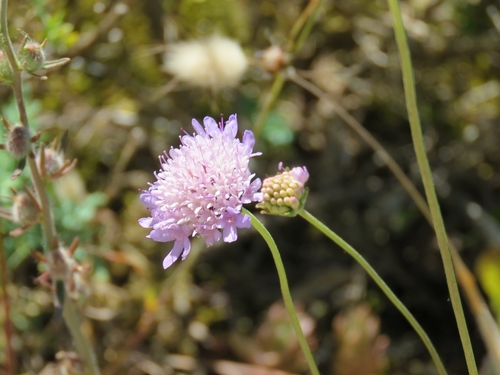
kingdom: Plantae
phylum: Tracheophyta
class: Magnoliopsida
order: Dipsacales
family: Caprifoliaceae
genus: Sixalix
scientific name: Sixalix atropurpurea
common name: Sweet scabious
